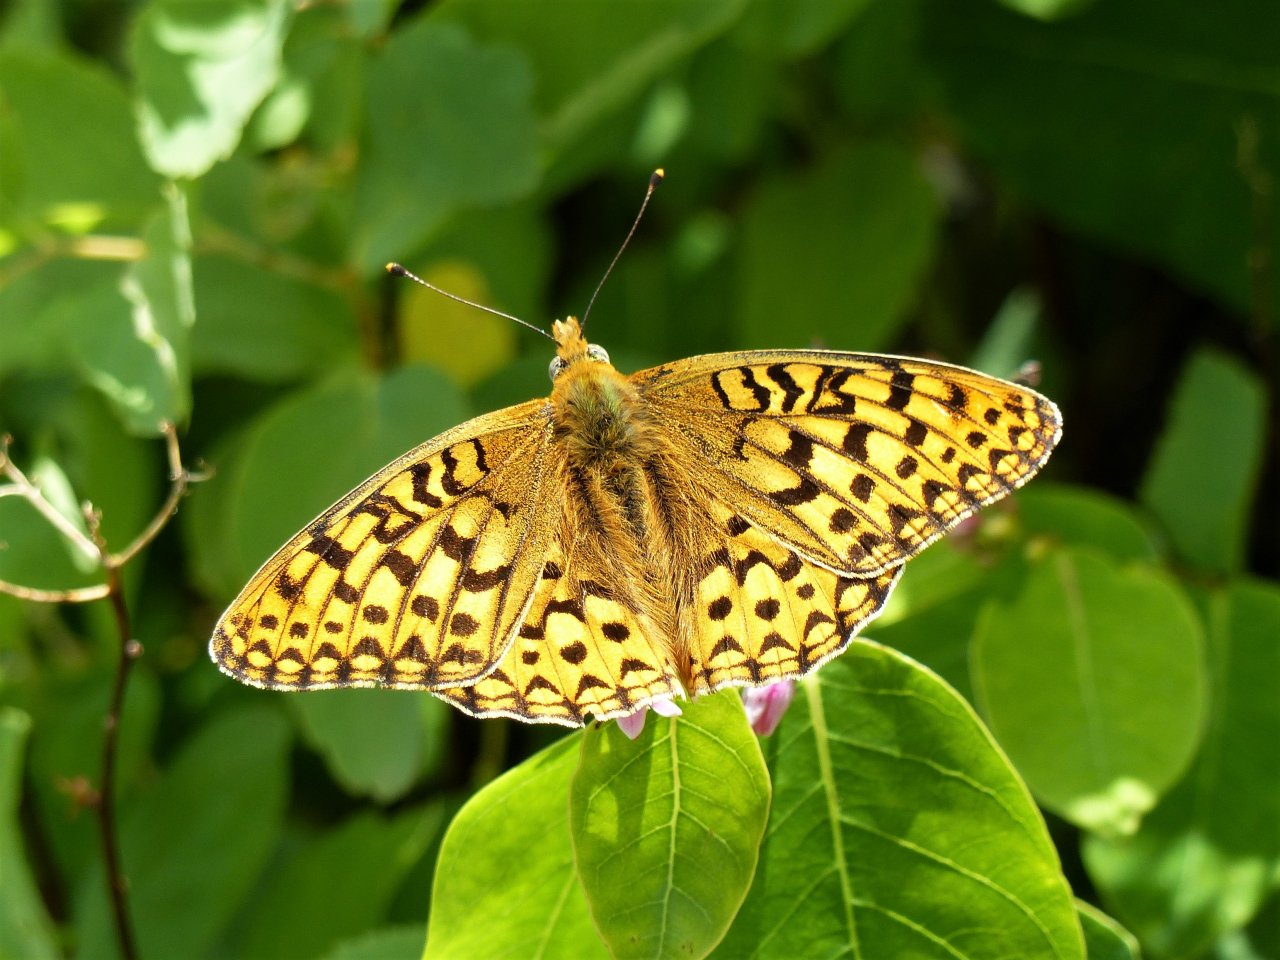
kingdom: Animalia
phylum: Arthropoda
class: Insecta
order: Lepidoptera
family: Nymphalidae
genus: Speyeria
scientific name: Speyeria callippe
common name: Callippe Fritillary
